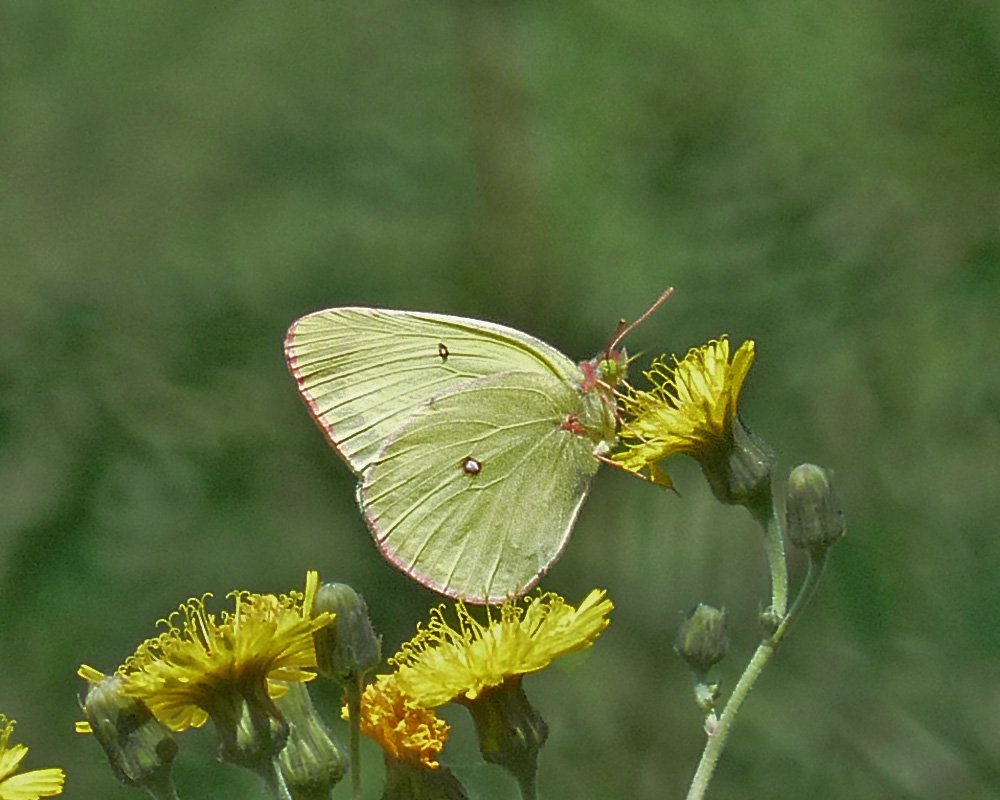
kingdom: Animalia
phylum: Arthropoda
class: Insecta
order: Lepidoptera
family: Pieridae
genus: Colias
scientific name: Colias interior
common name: Pink-edged Sulphur
